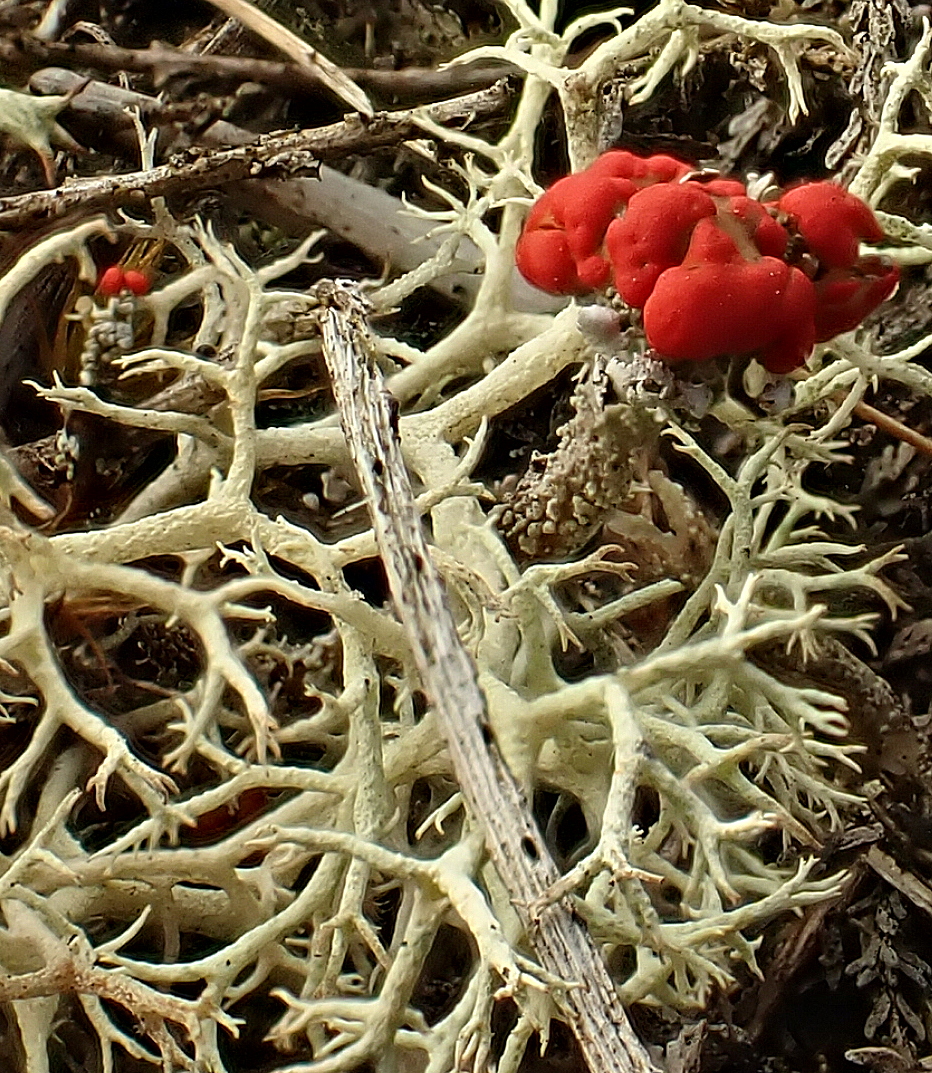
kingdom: Fungi
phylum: Ascomycota
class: Lecanoromycetes
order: Lecanorales
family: Cladoniaceae
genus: Cladonia
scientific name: Cladonia floerkeana
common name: lakrød bægerlav
